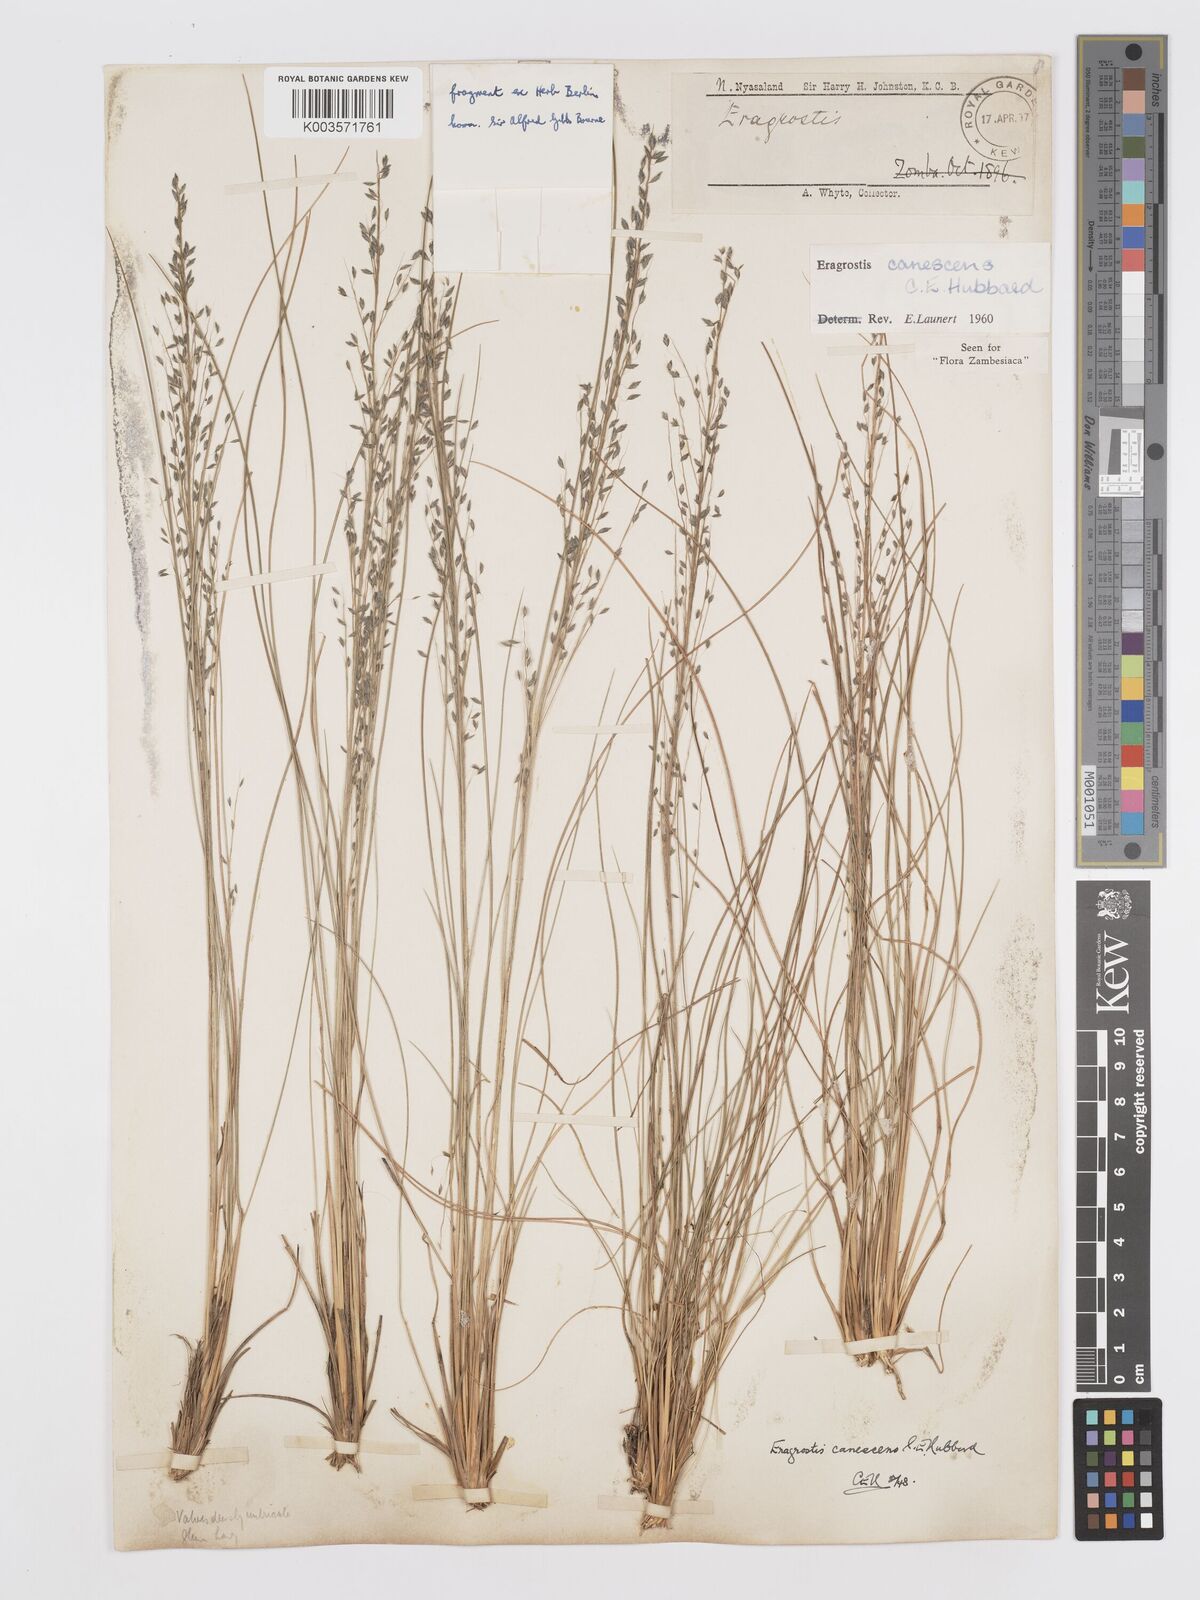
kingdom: Plantae
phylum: Tracheophyta
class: Liliopsida
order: Poales
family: Poaceae
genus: Eragrostis
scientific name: Eragrostis canescens
